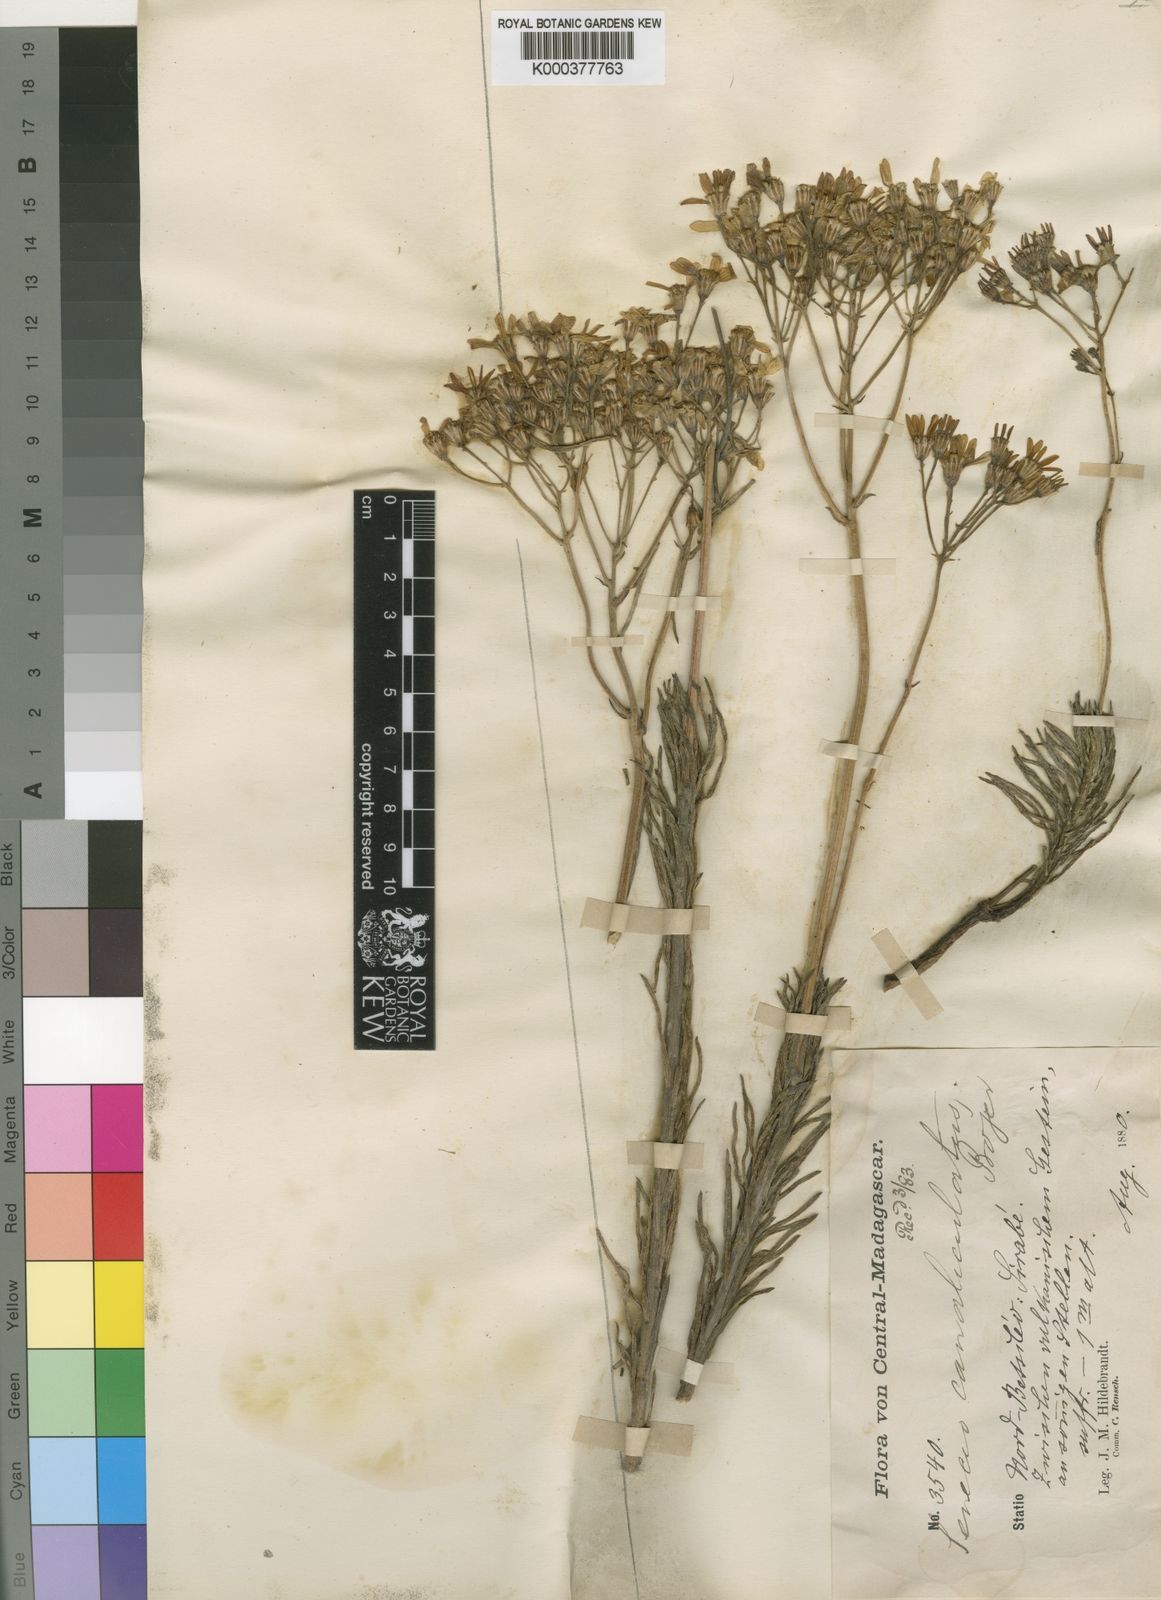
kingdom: Plantae
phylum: Tracheophyta
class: Magnoliopsida
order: Asterales
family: Asteraceae
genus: Senecio
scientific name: Senecio canaliculatus
